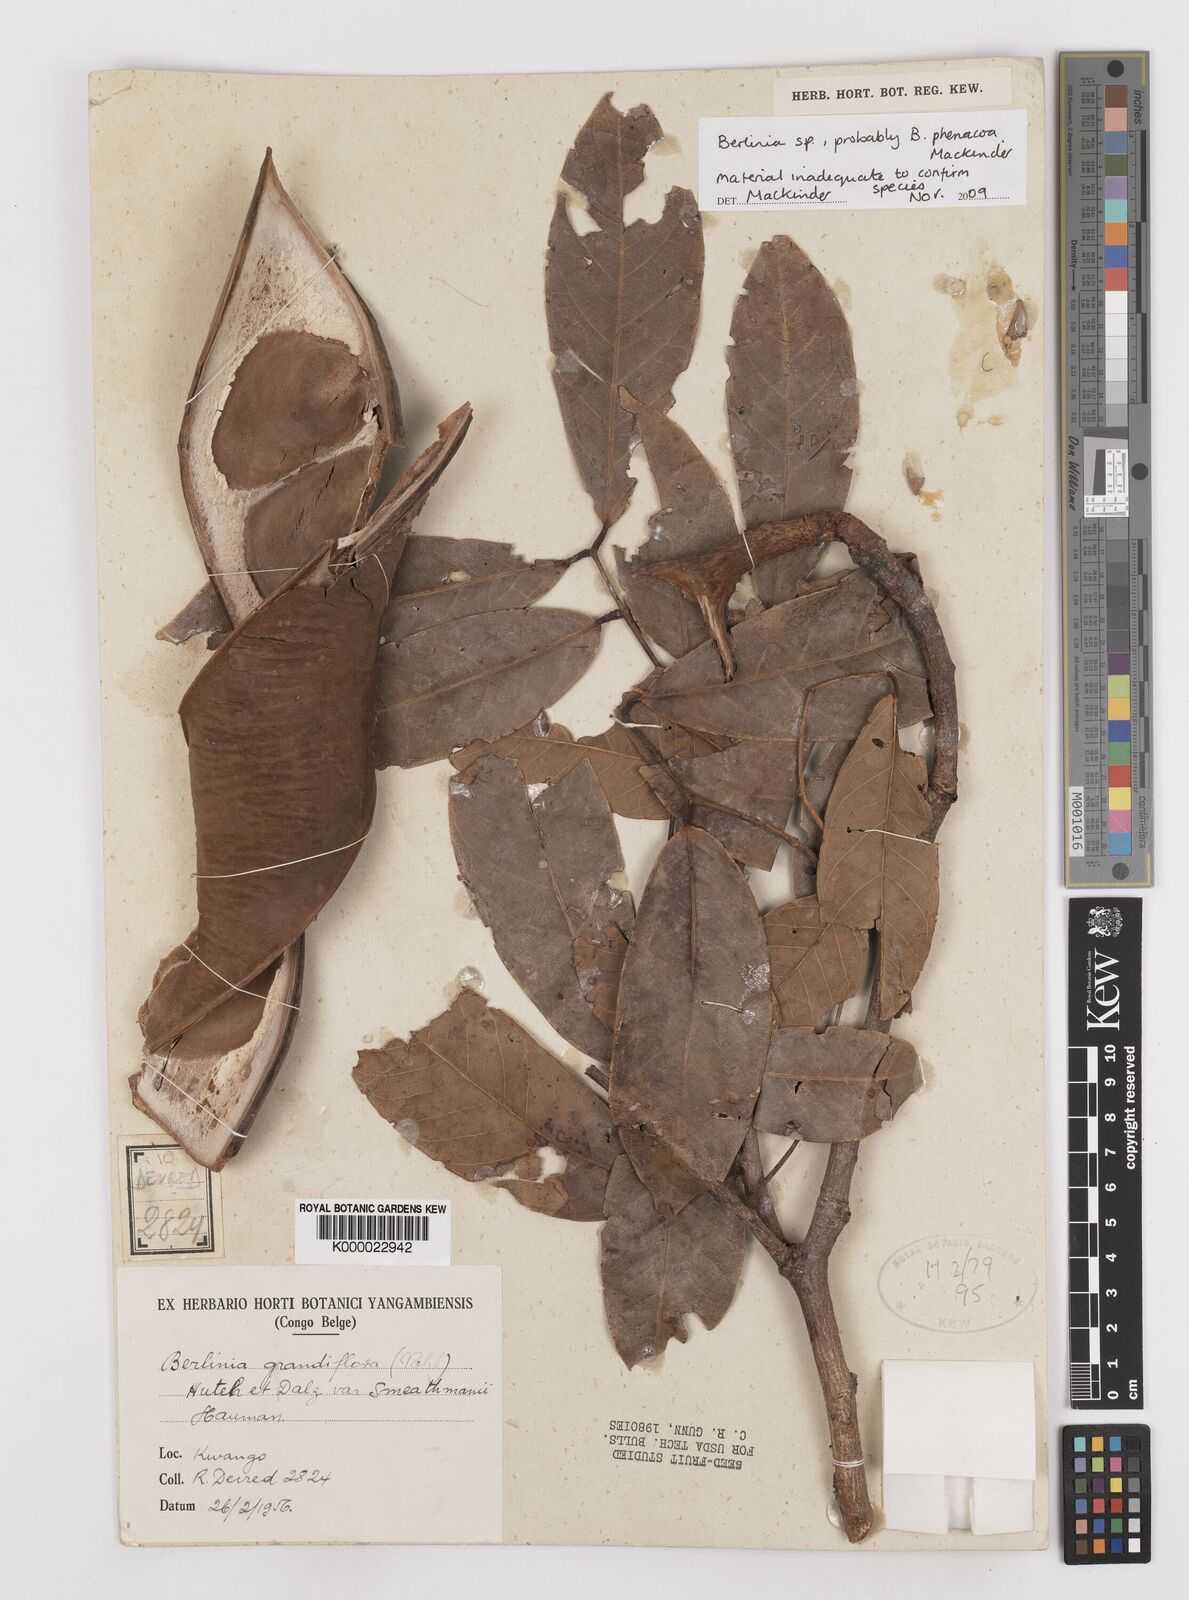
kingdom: Plantae
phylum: Tracheophyta
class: Magnoliopsida
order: Fabales
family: Fabaceae
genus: Berlinia
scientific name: Berlinia
